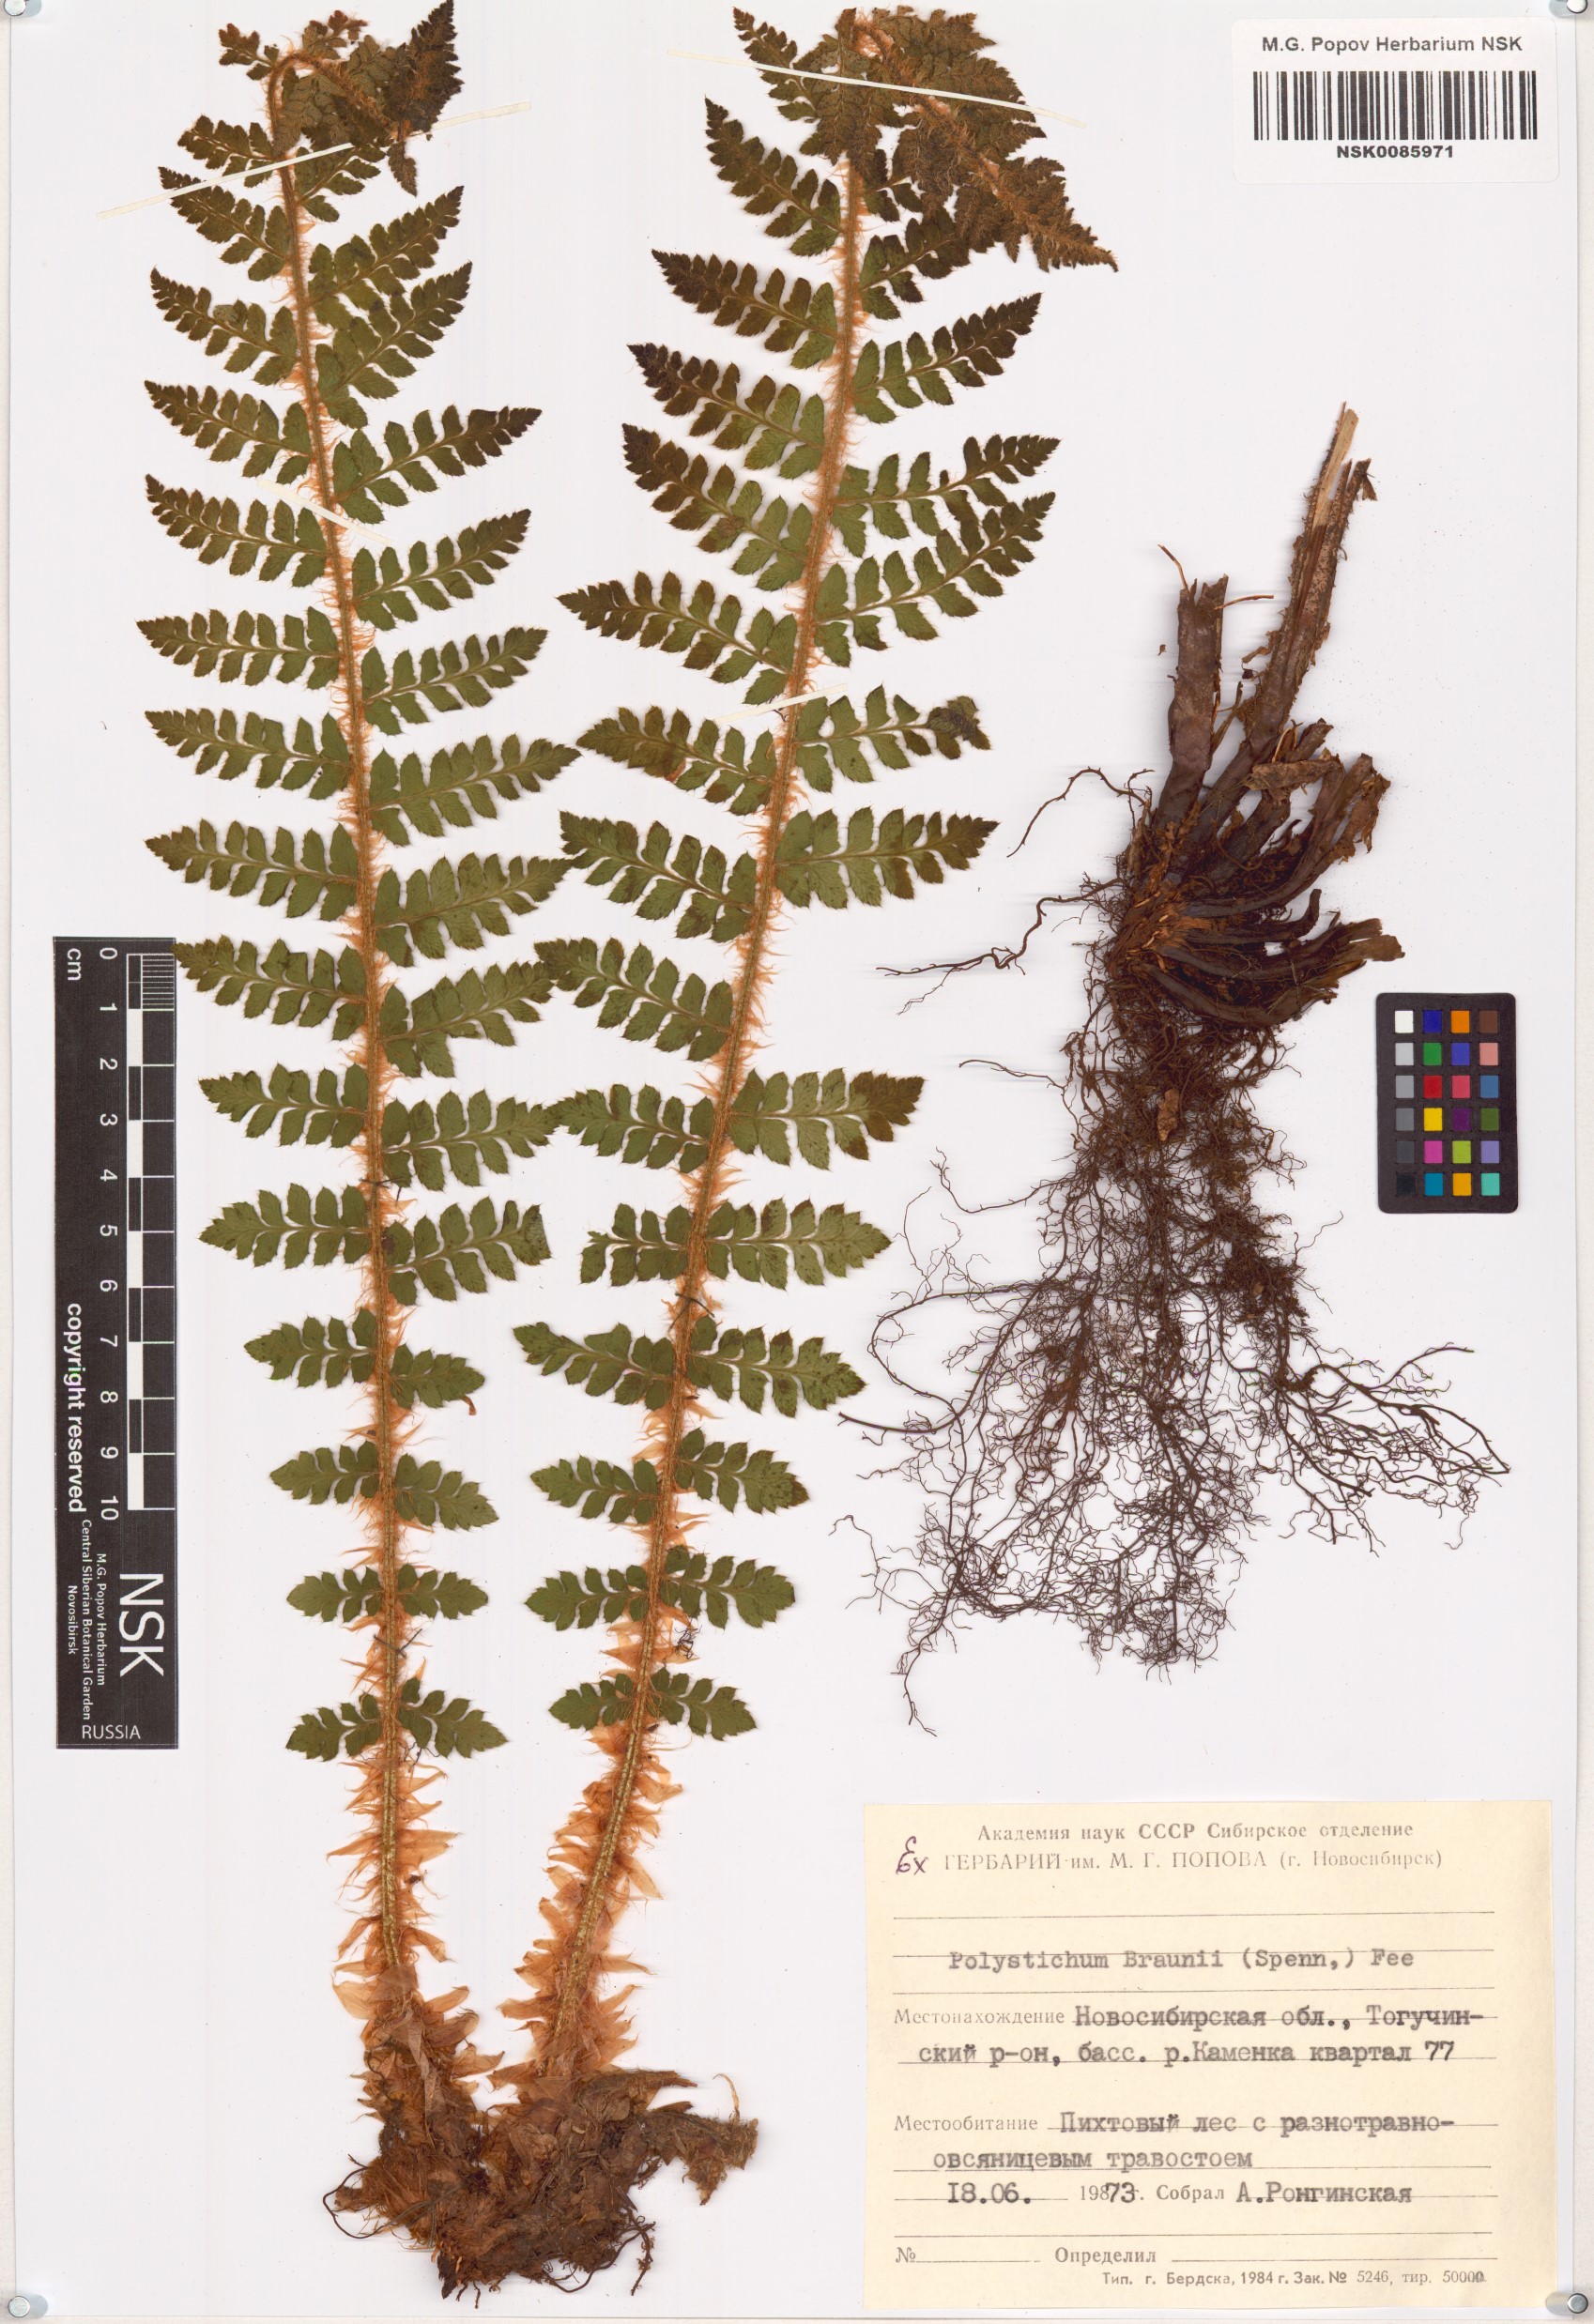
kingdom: Plantae
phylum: Tracheophyta
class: Polypodiopsida
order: Polypodiales
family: Dryopteridaceae
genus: Polystichum
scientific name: Polystichum braunii
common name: Braun's holly fern
